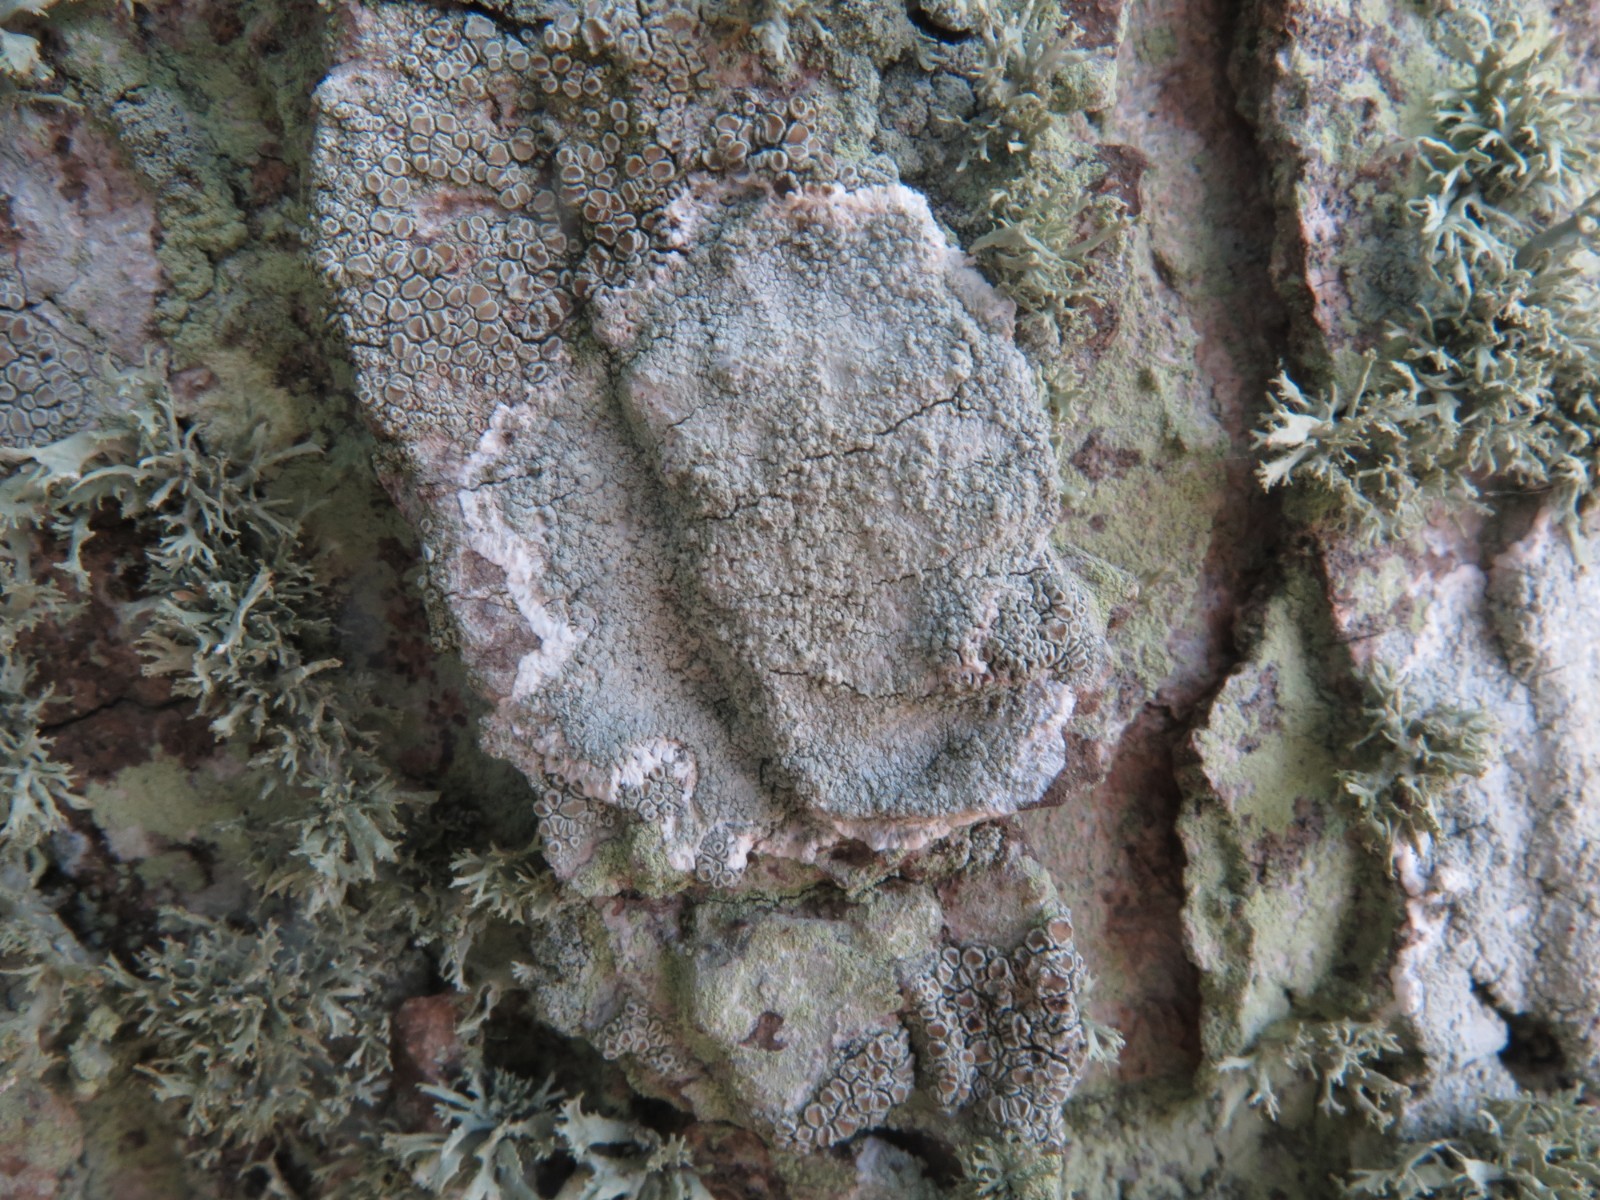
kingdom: Fungi
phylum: Ascomycota
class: Lecanoromycetes
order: Ostropales
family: Phlyctidaceae
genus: Phlyctis
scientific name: Phlyctis argena
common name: almindelig sølvlav
